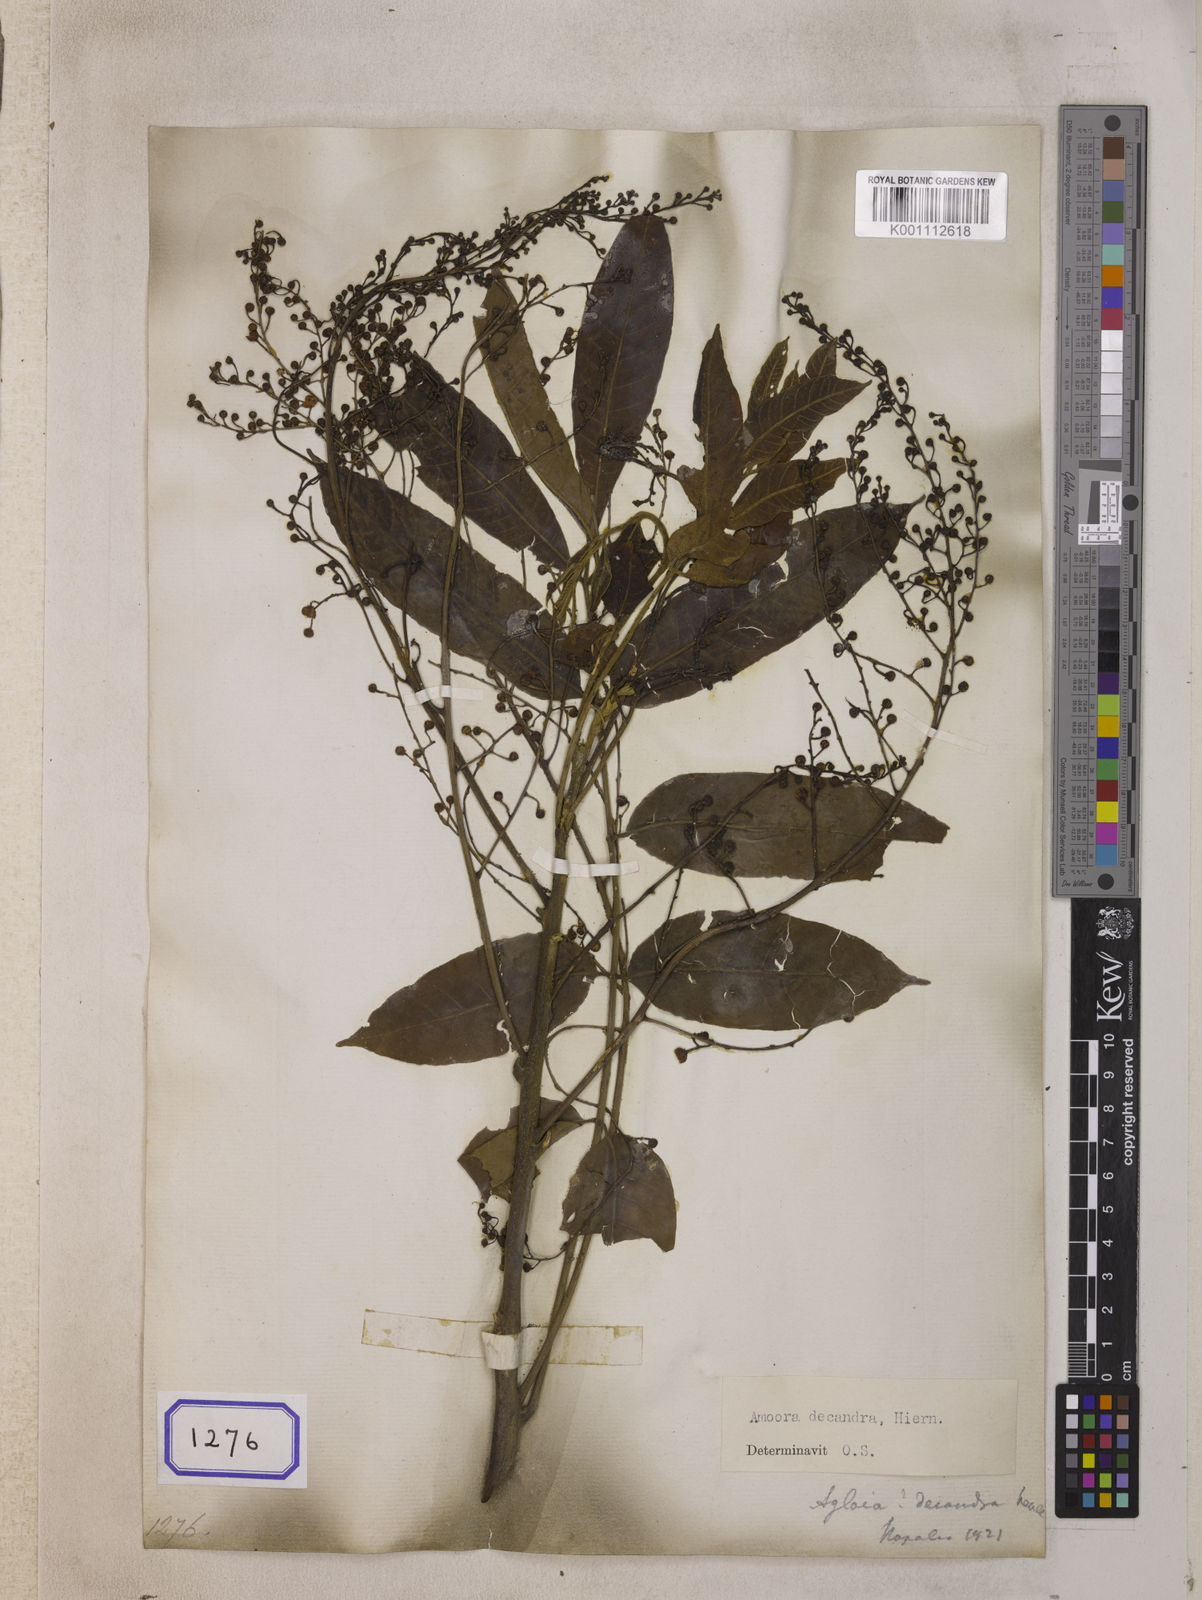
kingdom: Plantae
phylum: Tracheophyta
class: Magnoliopsida
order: Sapindales
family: Meliaceae
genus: Sphaerosacme
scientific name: Sphaerosacme
